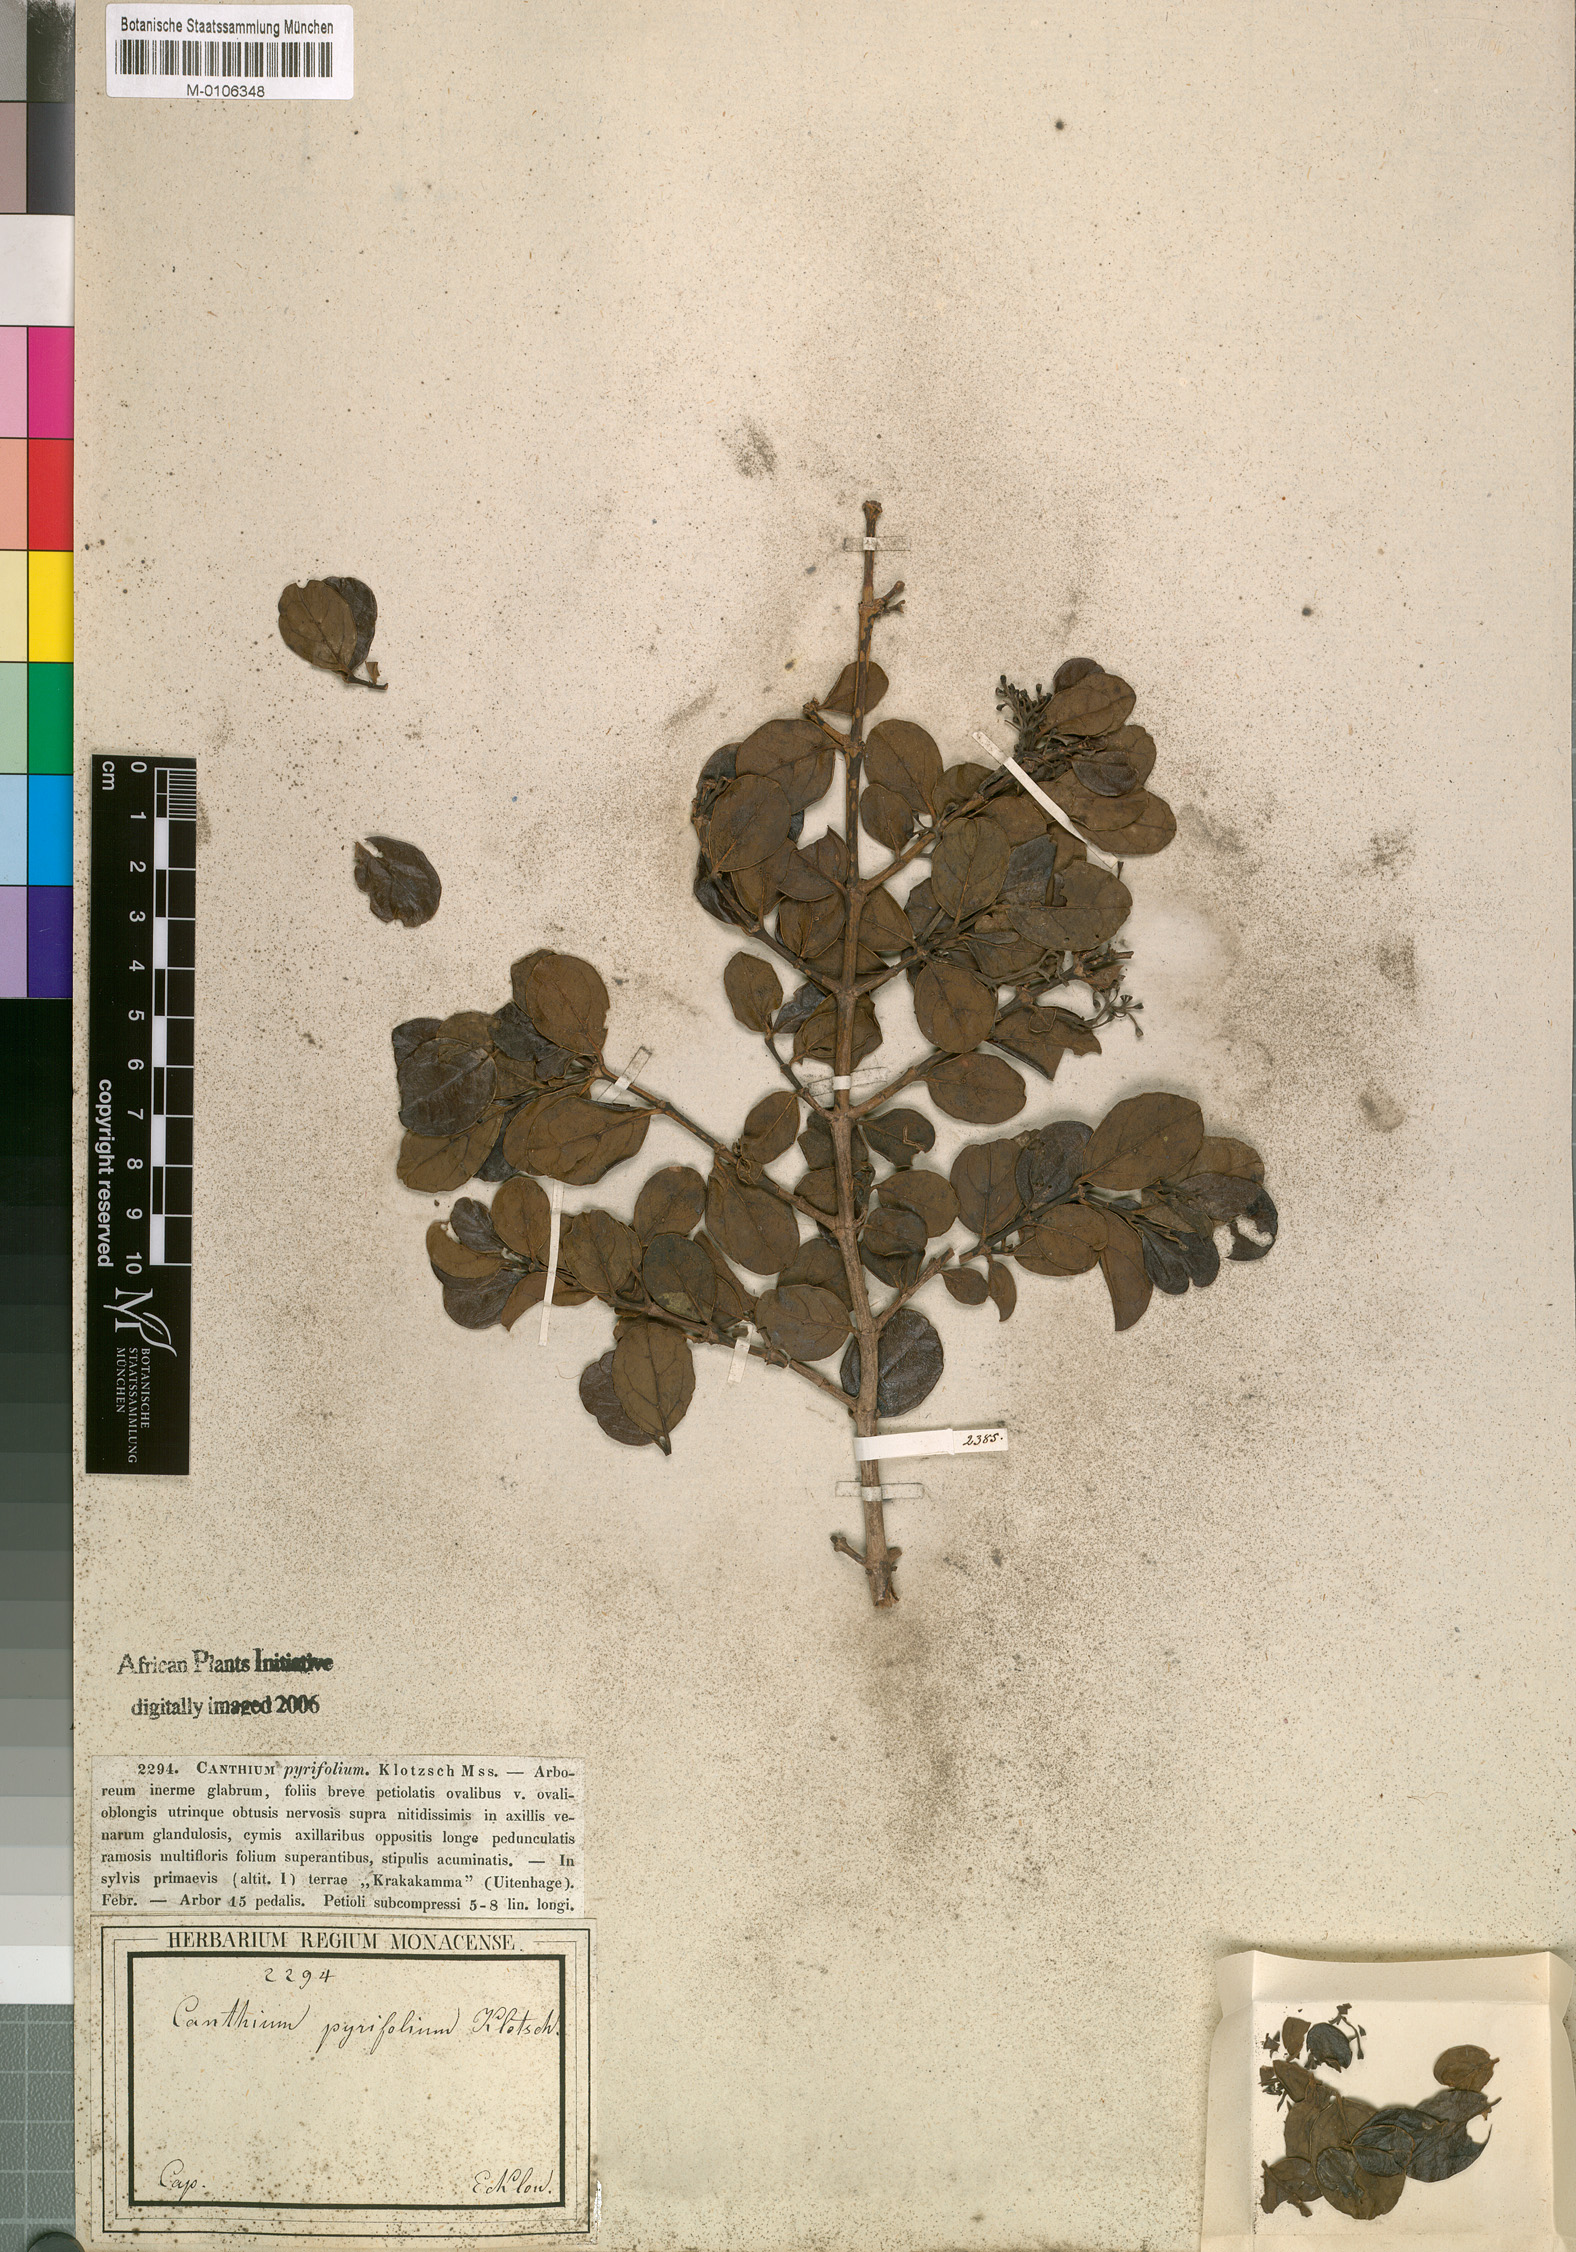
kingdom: Plantae
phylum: Tracheophyta
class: Magnoliopsida
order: Gentianales
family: Rubiaceae
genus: Psydrax
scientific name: Psydrax obovatus
